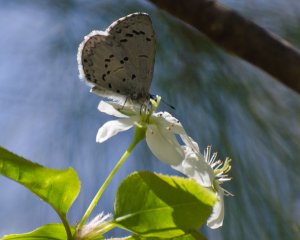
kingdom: Animalia
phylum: Arthropoda
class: Insecta
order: Lepidoptera
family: Lycaenidae
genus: Glaucopsyche
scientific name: Glaucopsyche lygdamus
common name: Silvery Blue
